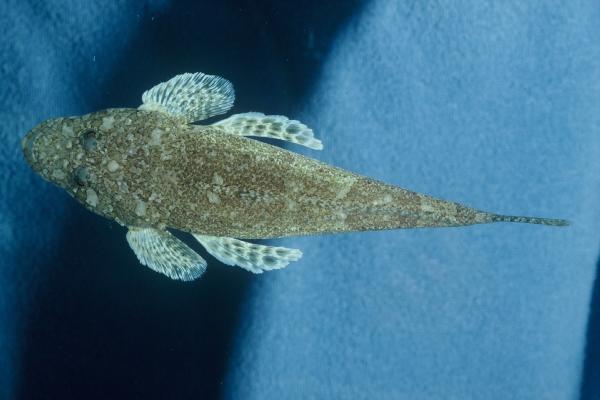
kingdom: Animalia
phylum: Chordata
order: Scorpaeniformes
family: Platycephalidae
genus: Sunagocia
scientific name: Sunagocia arenicola
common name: Broadhead flathead
